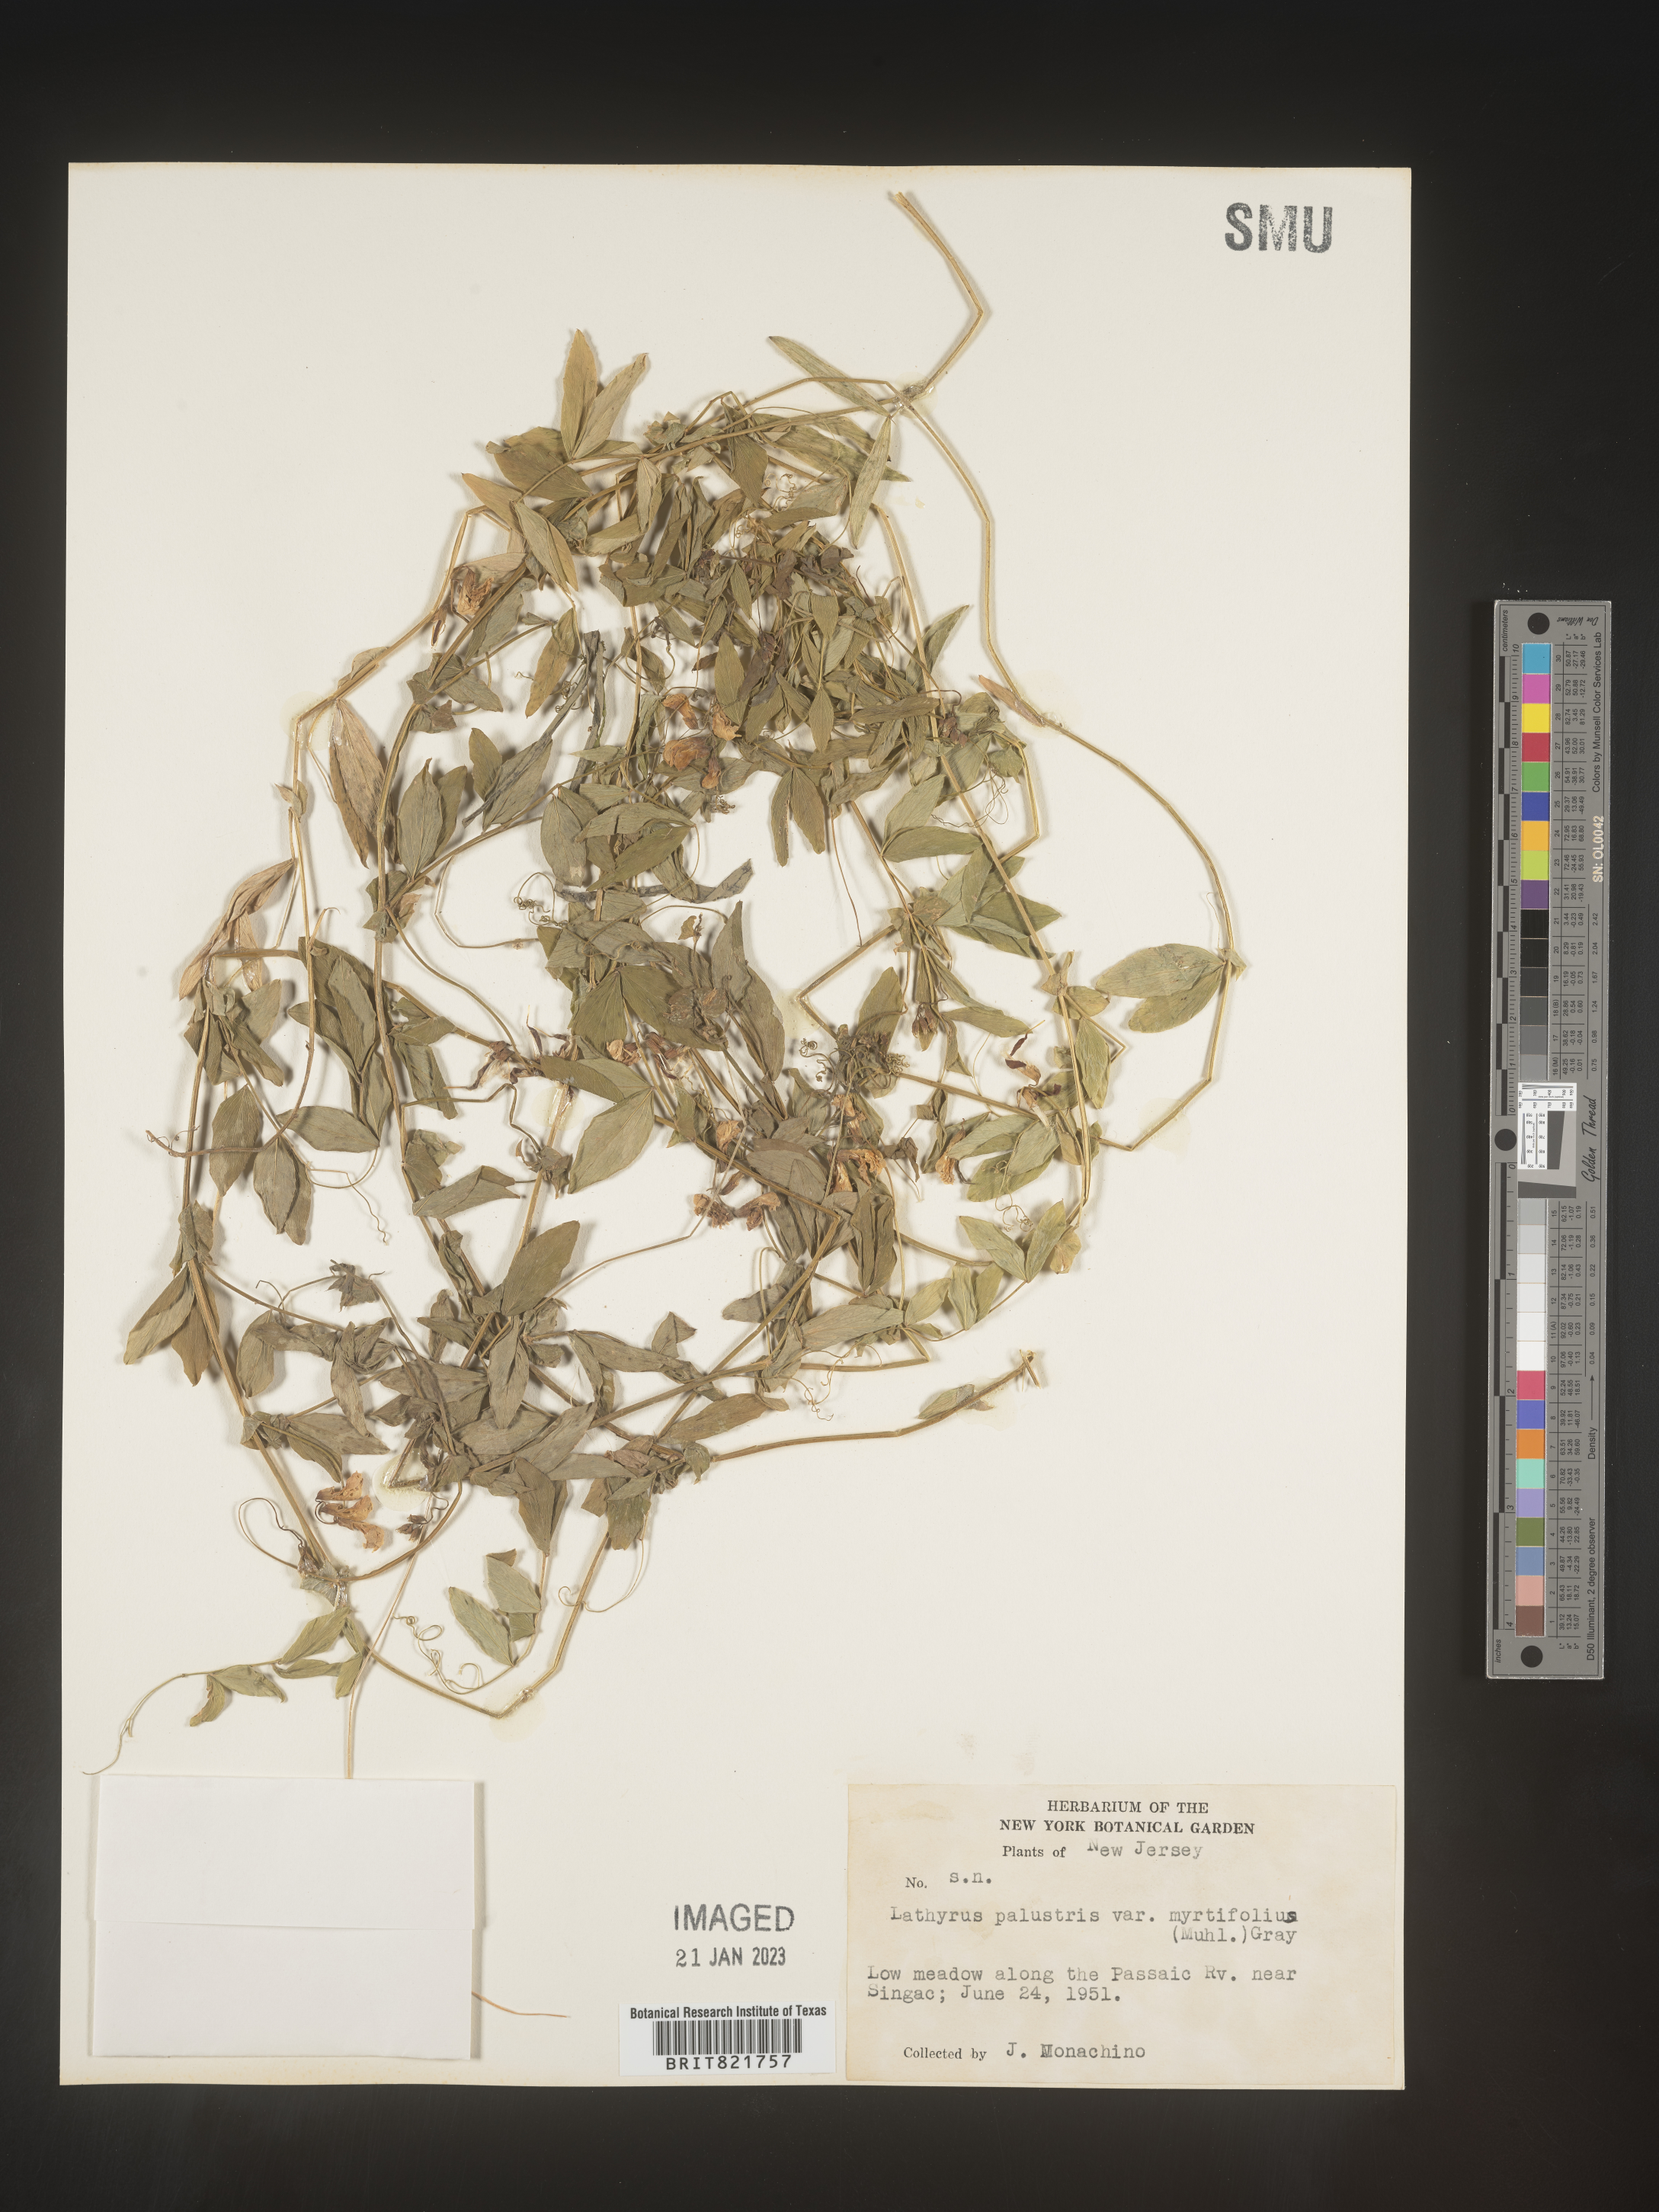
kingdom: Plantae
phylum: Tracheophyta
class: Magnoliopsida
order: Fabales
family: Fabaceae
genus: Lathyrus
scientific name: Lathyrus palustris
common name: Marsh pea
